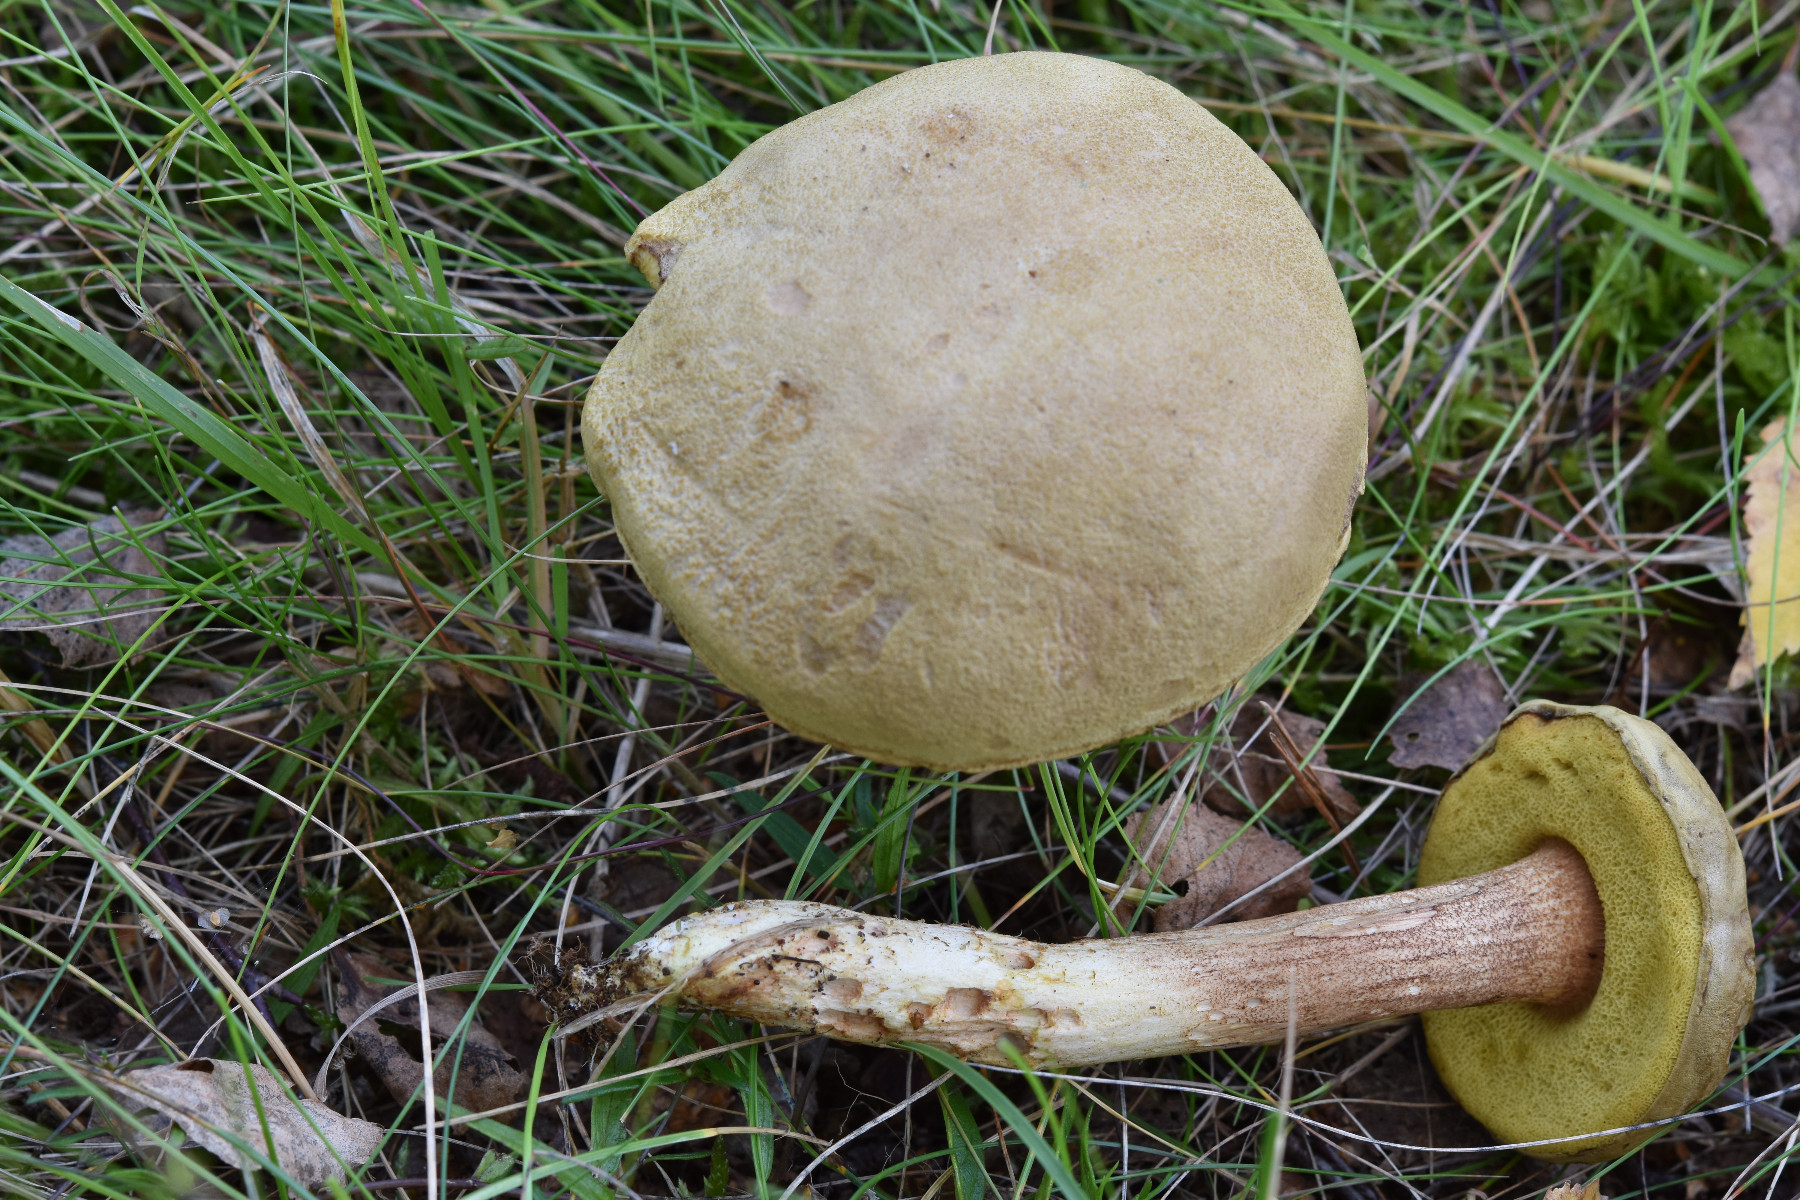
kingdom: Fungi
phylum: Basidiomycota
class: Agaricomycetes
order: Boletales
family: Boletaceae
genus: Xerocomus
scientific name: Xerocomus ferrugineus
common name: vaskeskinds-rørhat
